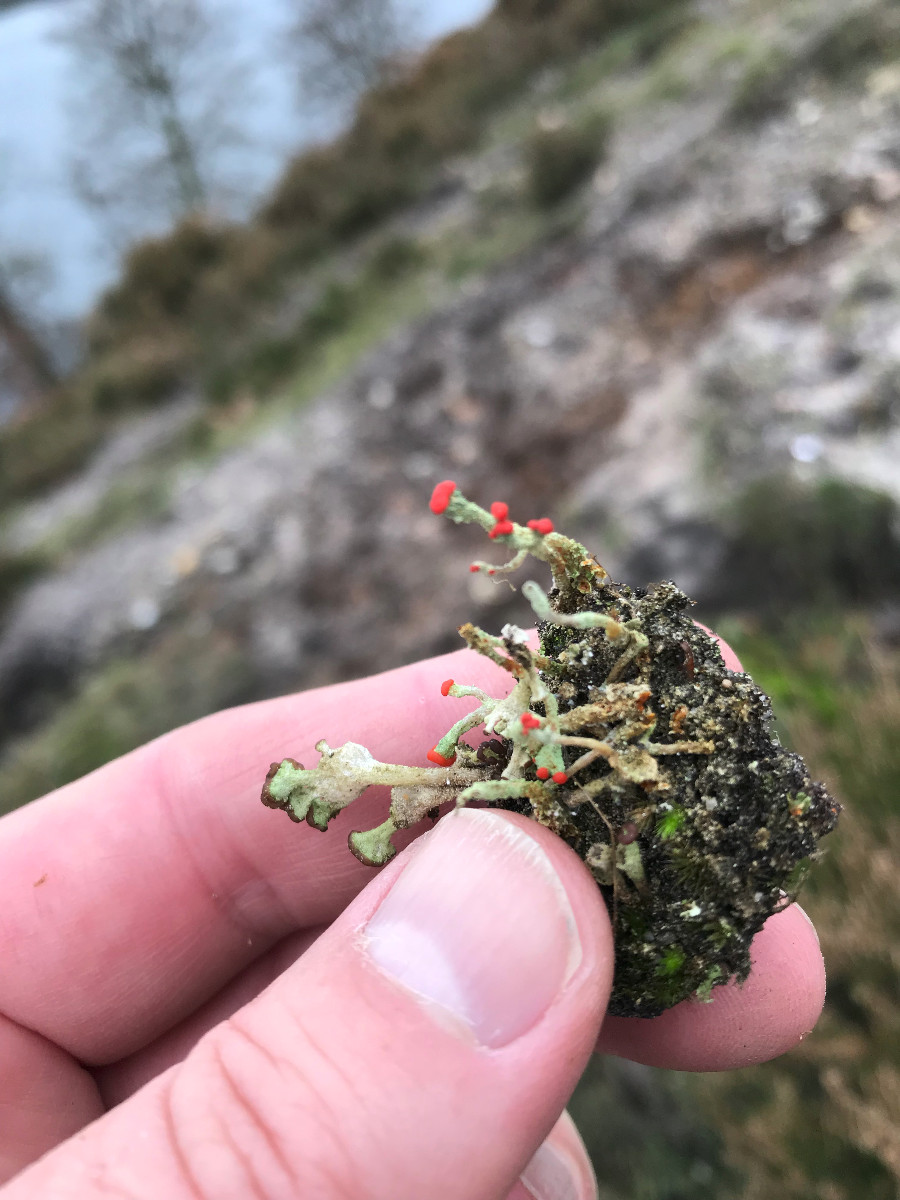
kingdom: Fungi
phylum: Ascomycota
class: Lecanoromycetes
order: Lecanorales
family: Cladoniaceae
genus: Cladonia
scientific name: Cladonia floerkeana
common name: lakrød bægerlav
